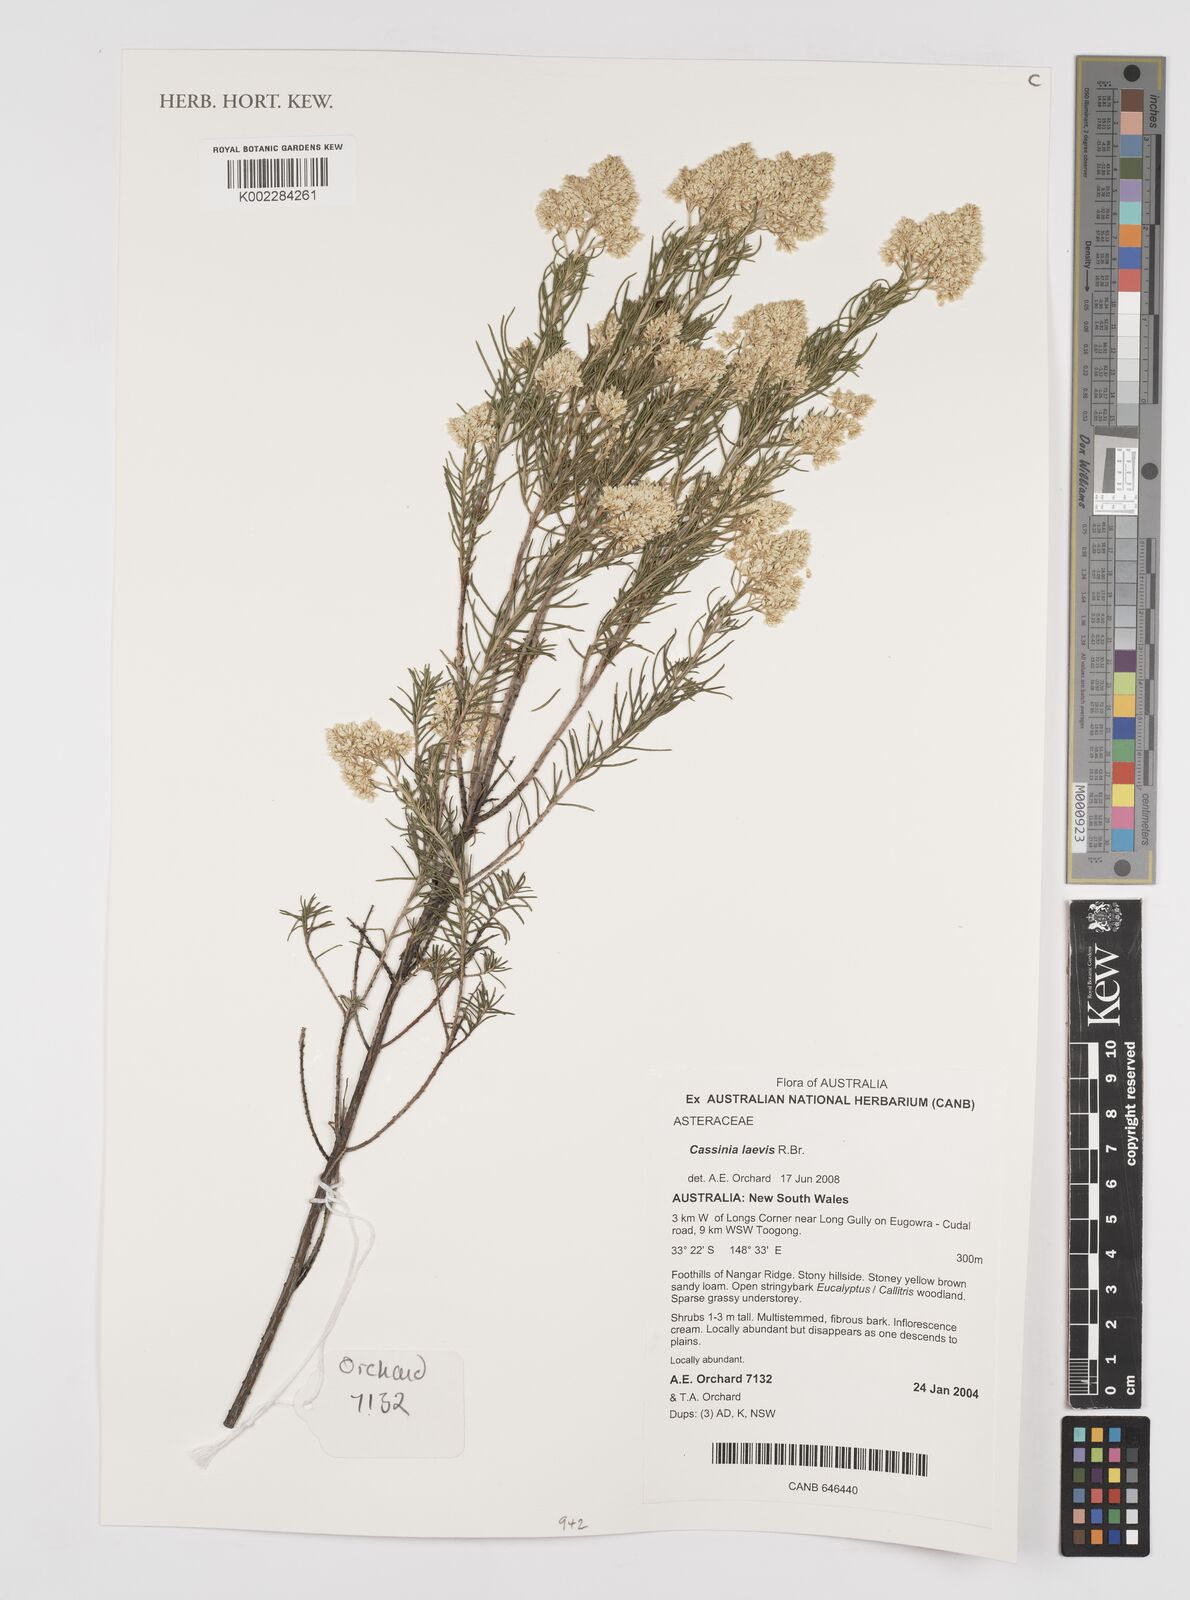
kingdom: Plantae
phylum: Tracheophyta
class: Magnoliopsida
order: Asterales
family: Asteraceae
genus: Cassinia
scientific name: Cassinia laevis
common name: Coughbush
